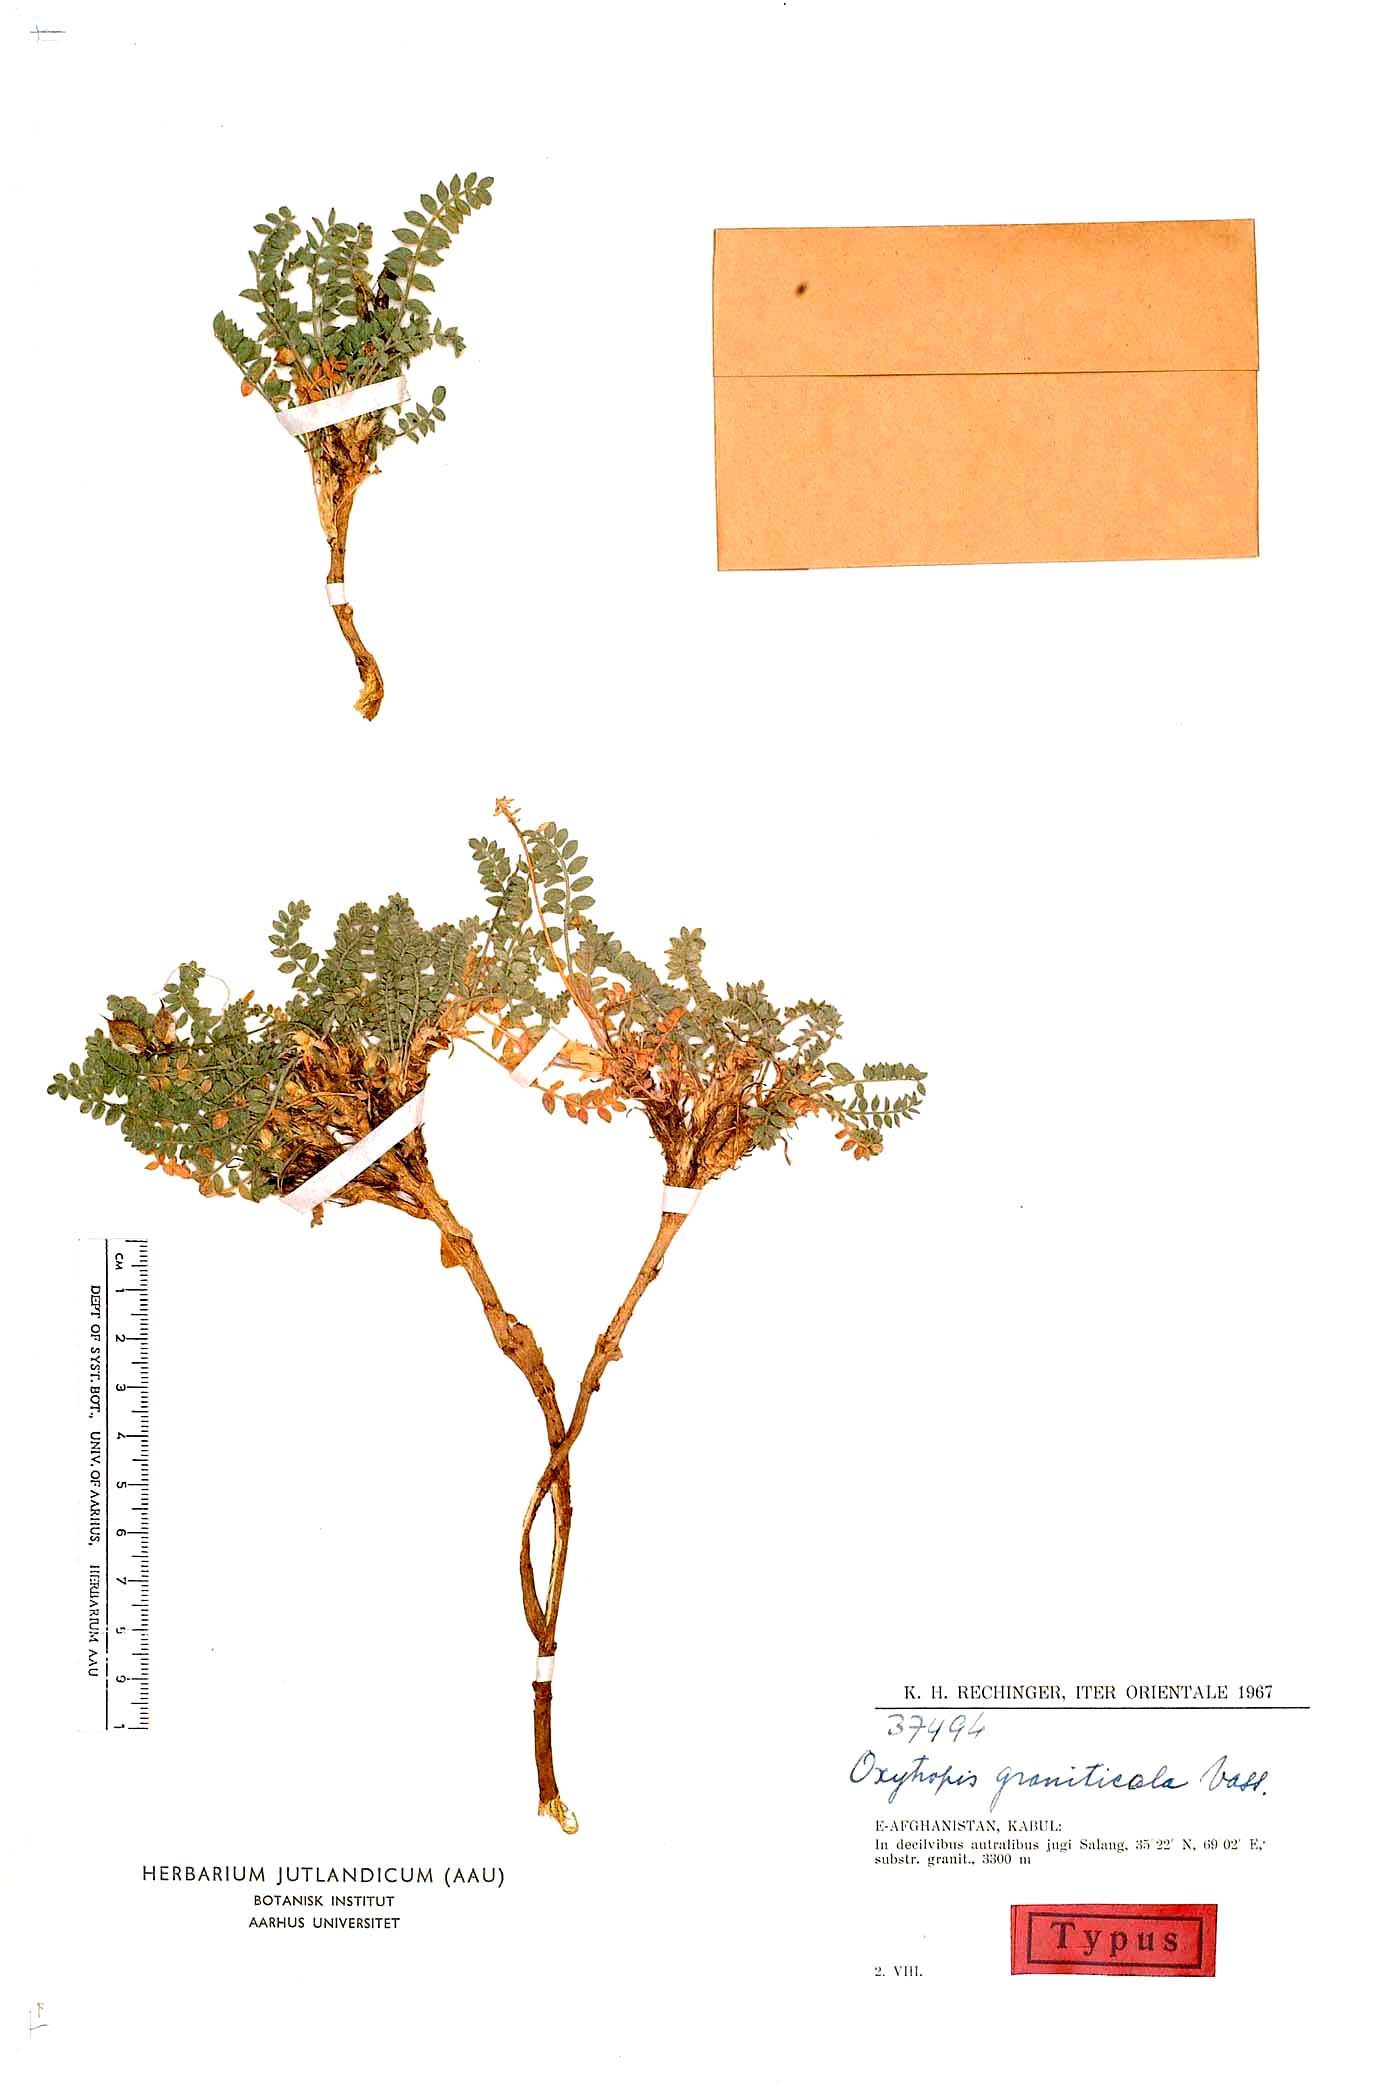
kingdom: Plantae
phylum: Tracheophyta
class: Magnoliopsida
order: Fabales
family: Fabaceae
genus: Oxytropis
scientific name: Oxytropis
